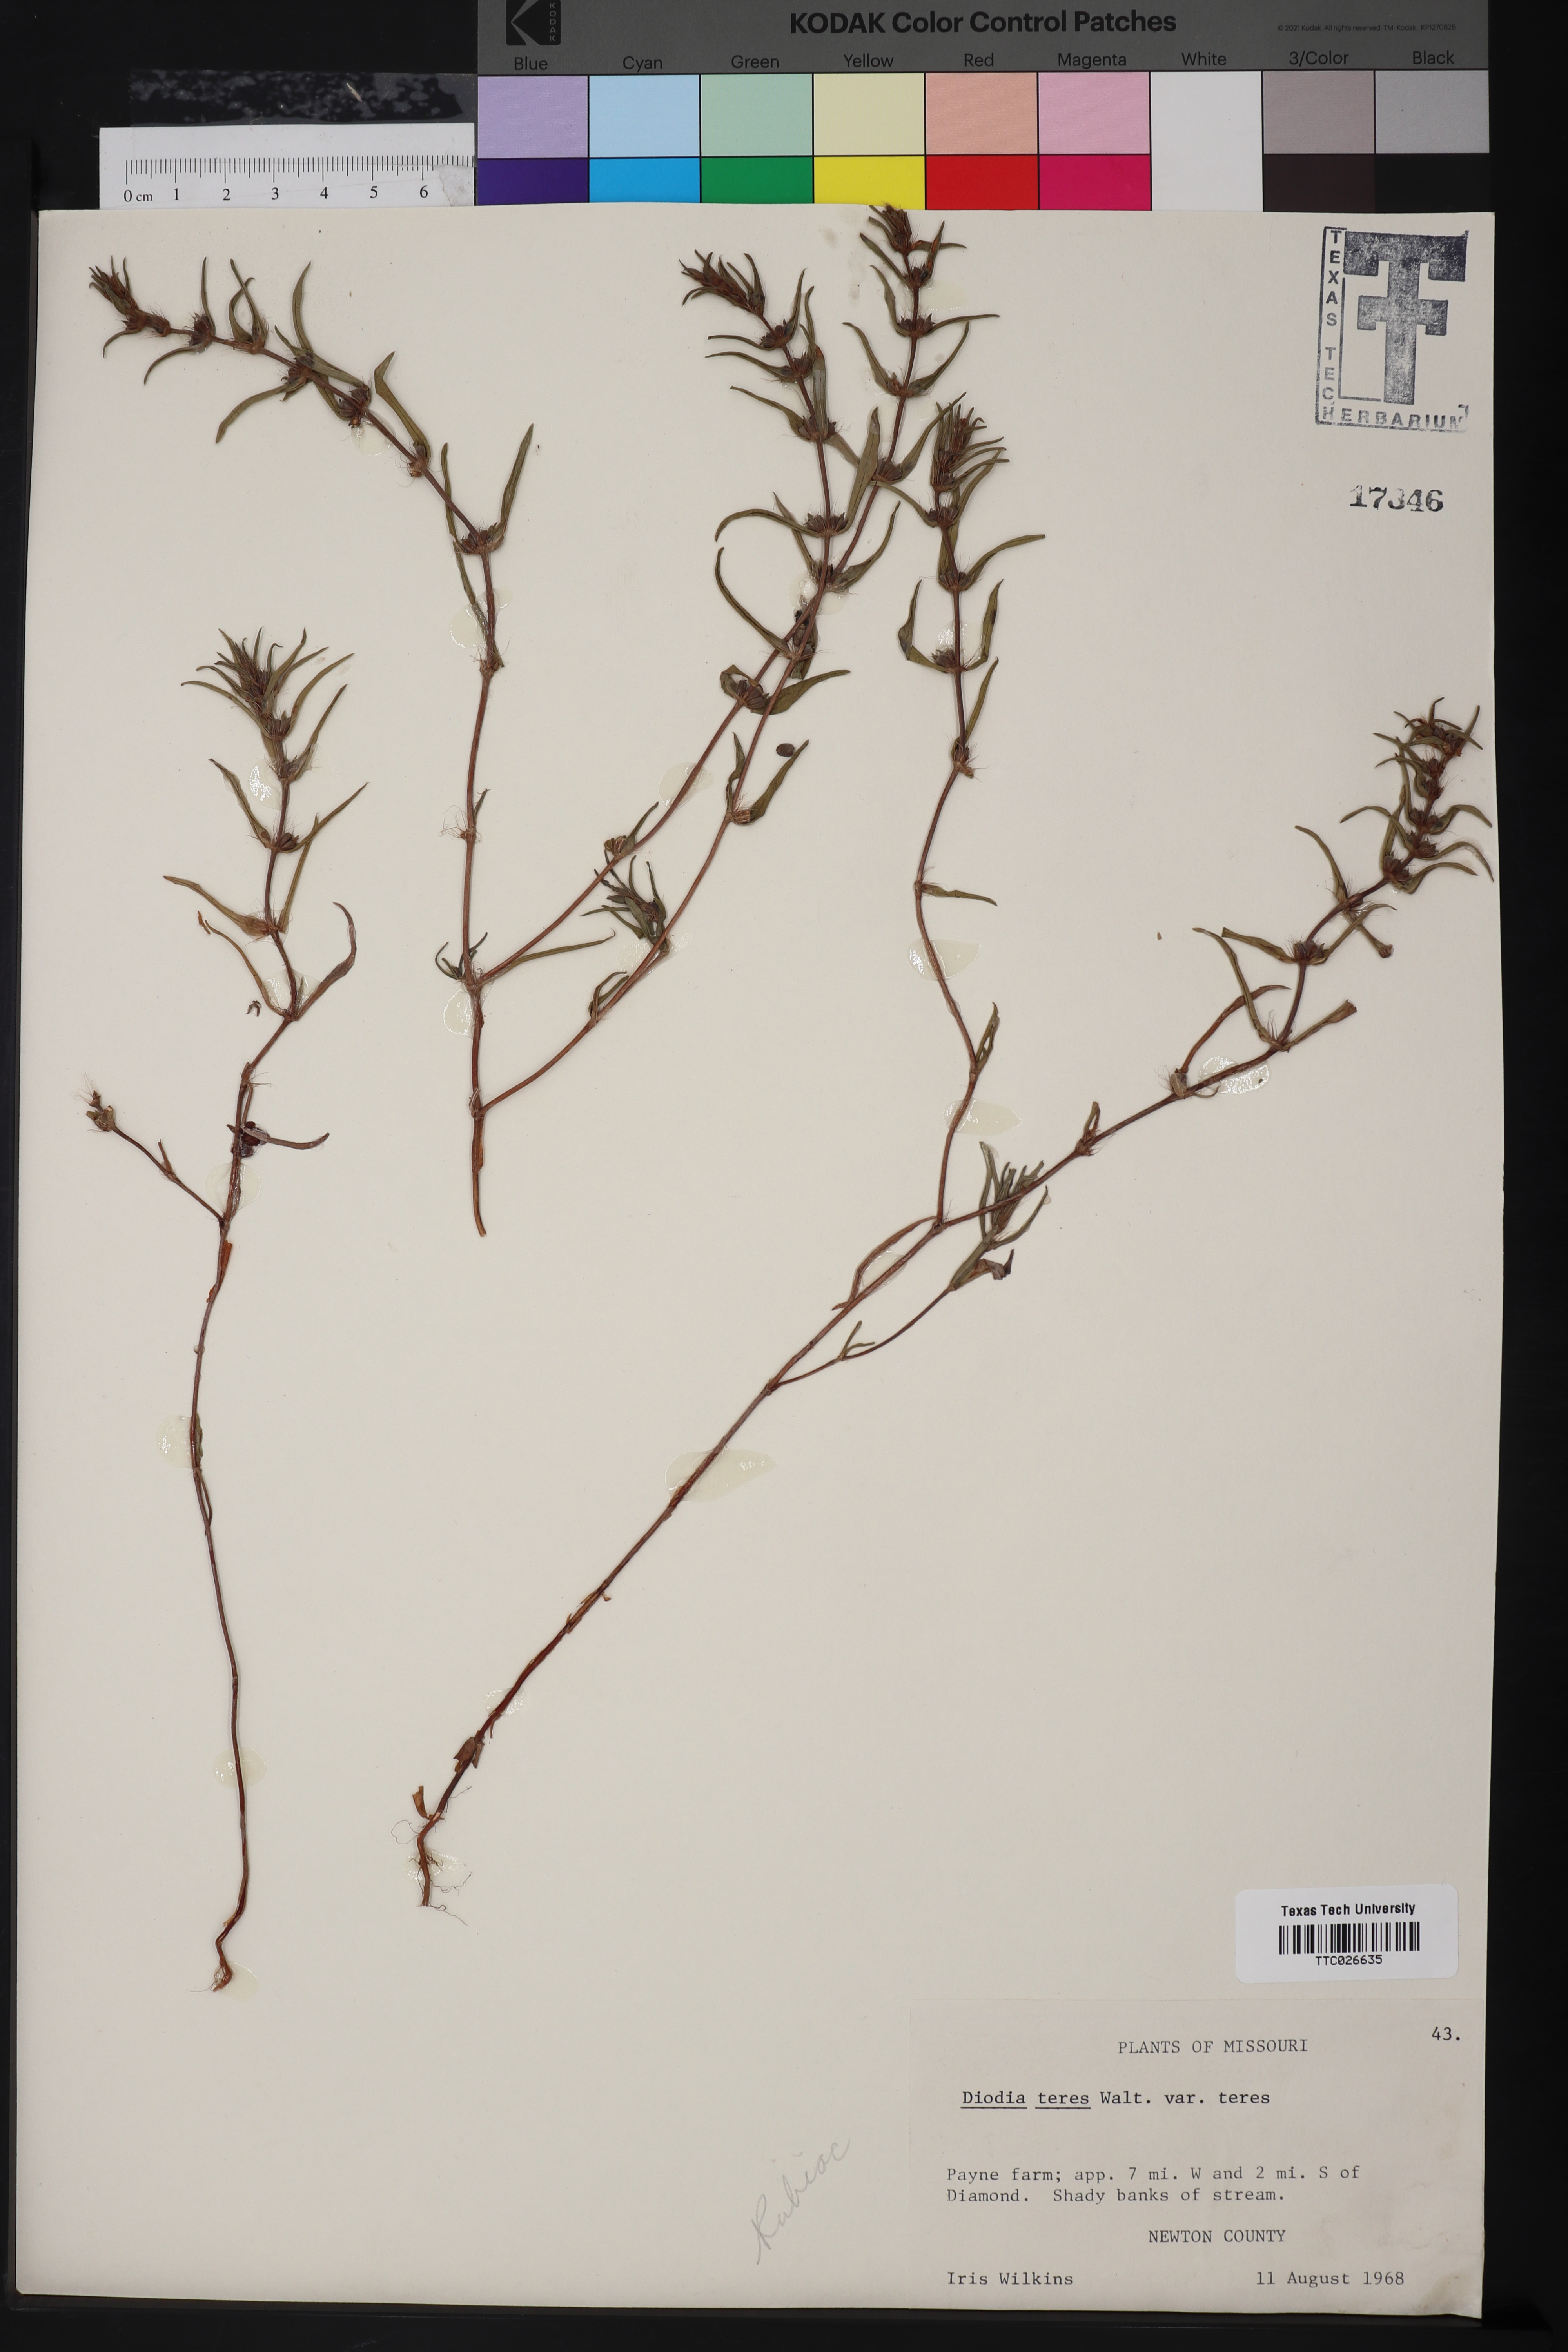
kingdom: Plantae
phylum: Tracheophyta
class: Magnoliopsida
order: Gentianales
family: Rubiaceae
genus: Hexasepalum
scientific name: Hexasepalum teres
